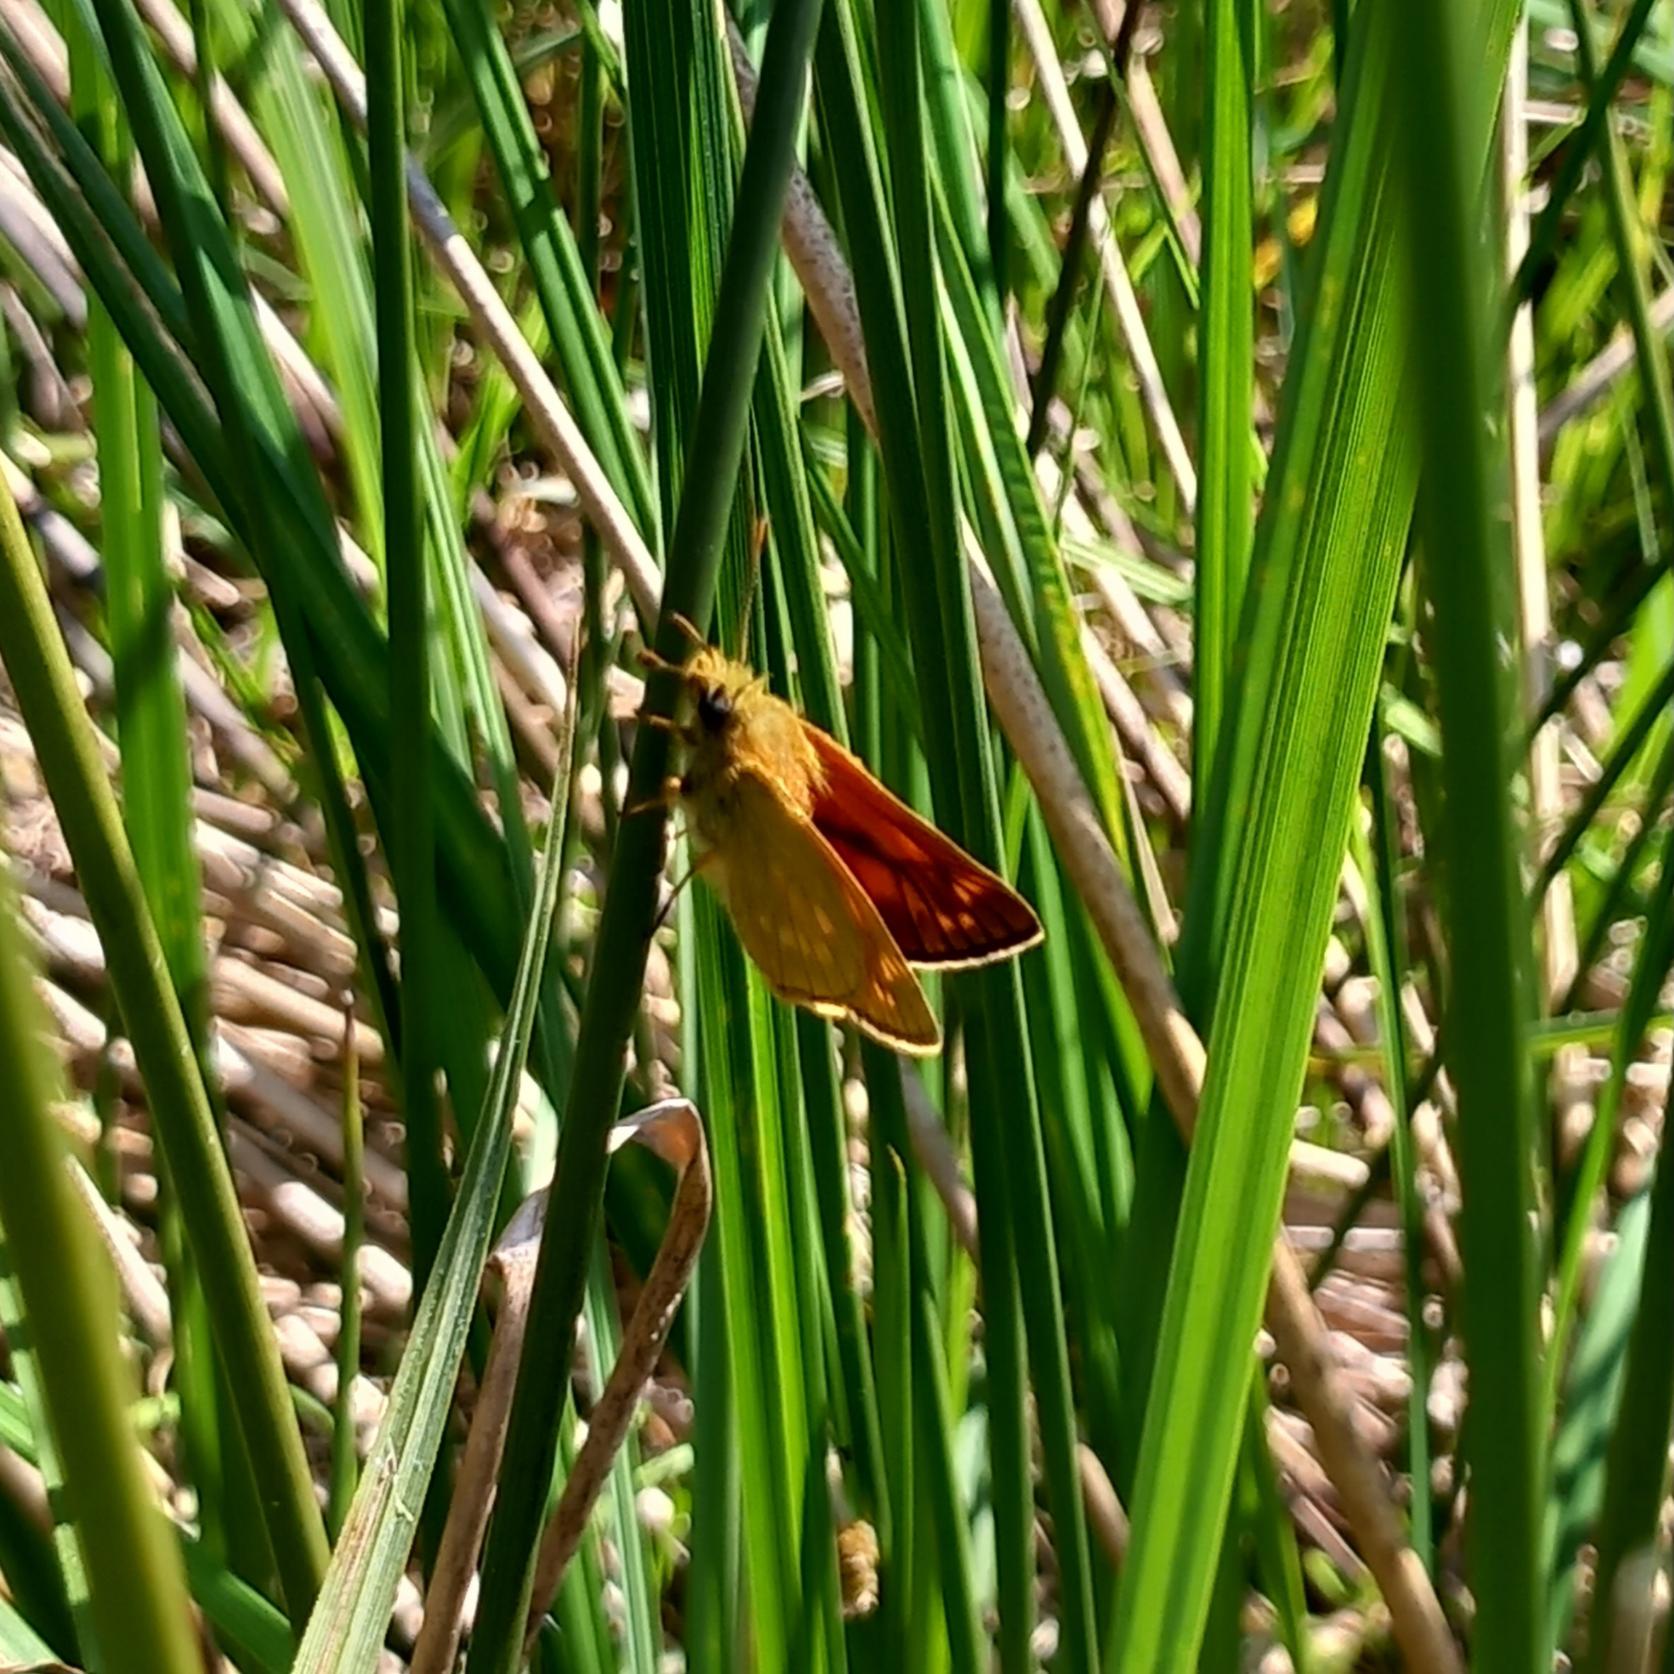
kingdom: Animalia
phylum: Arthropoda
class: Insecta
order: Lepidoptera
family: Hesperiidae
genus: Ochlodes
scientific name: Ochlodes venata
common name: Stor bredpande
